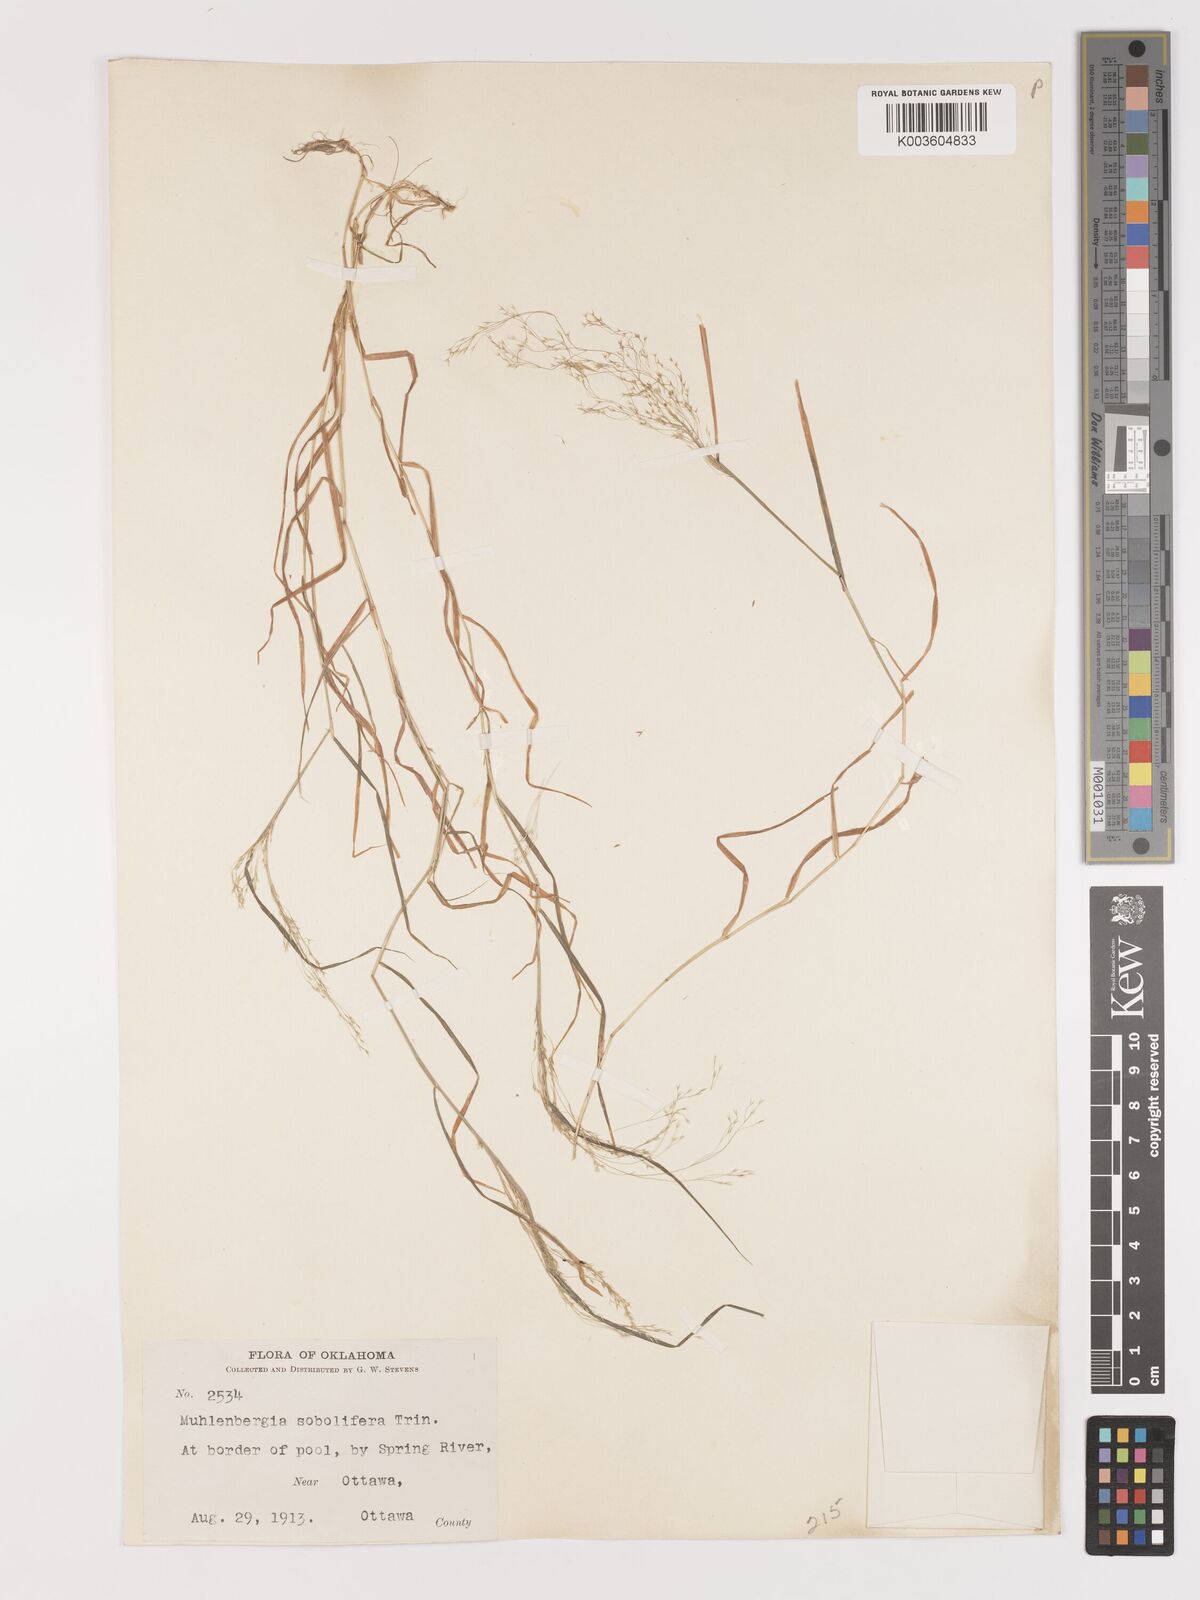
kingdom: Plantae
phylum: Tracheophyta
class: Liliopsida
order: Poales
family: Poaceae
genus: Agrostis
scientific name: Agrostis
